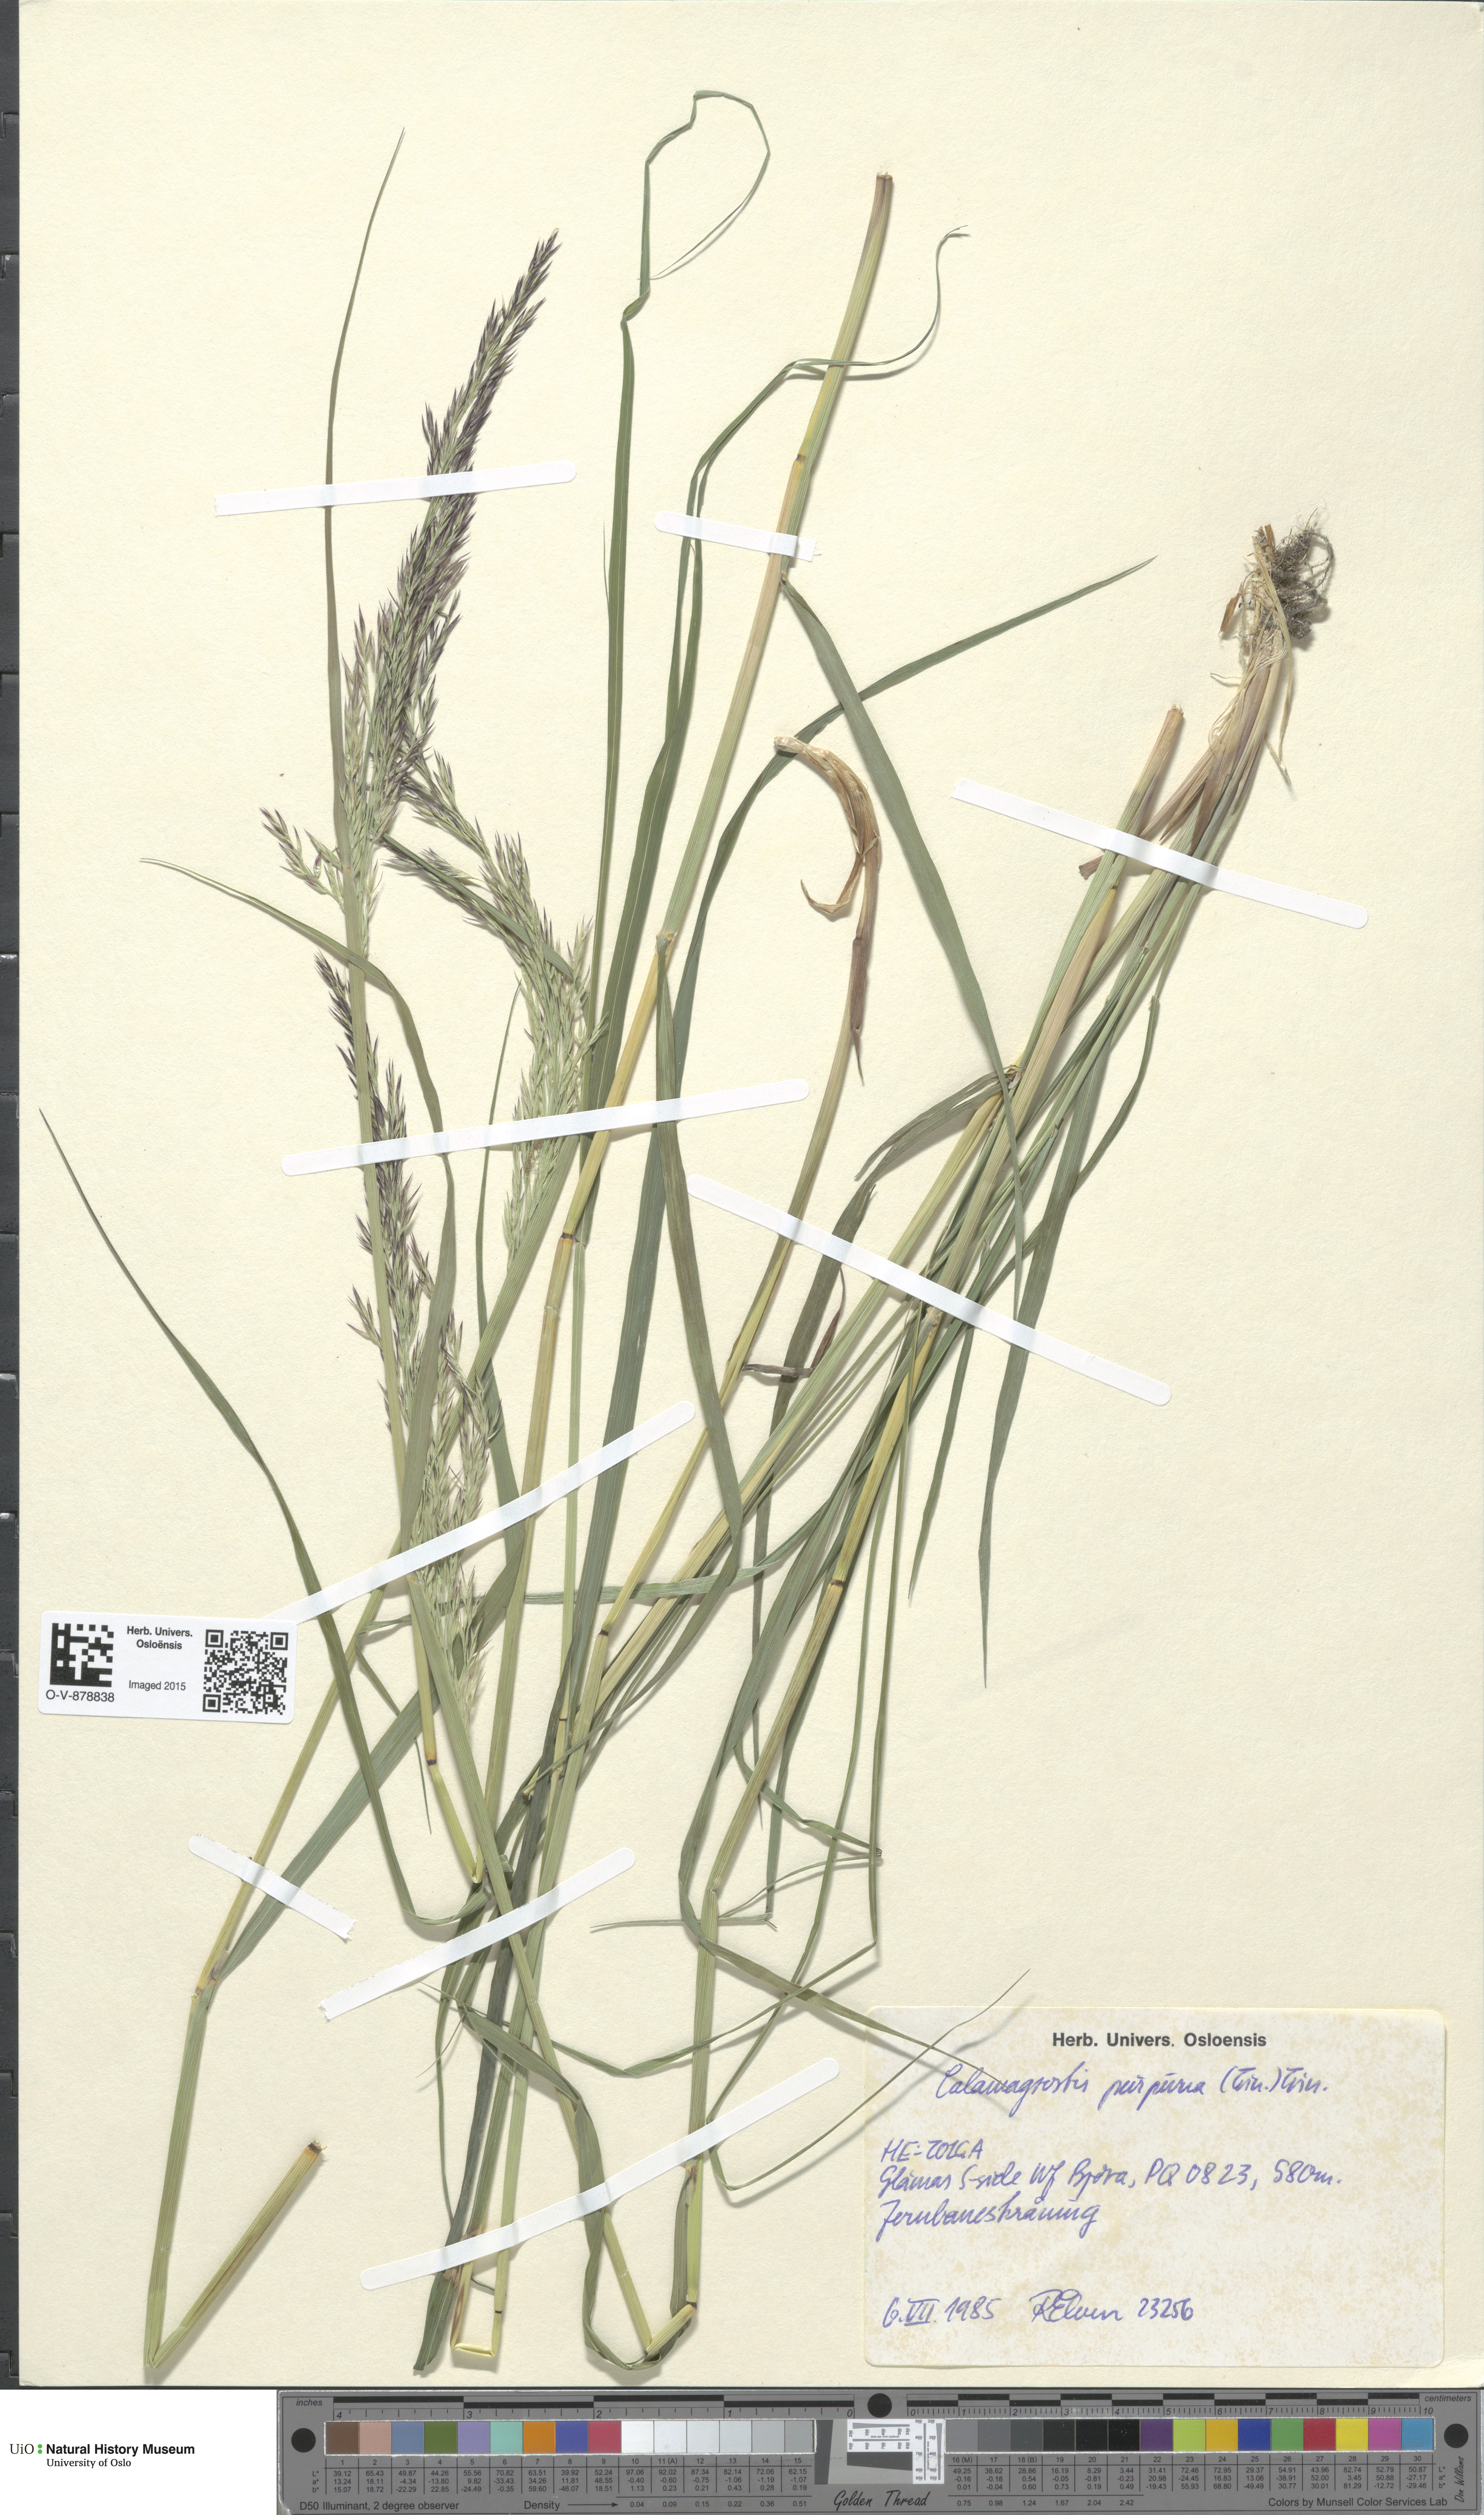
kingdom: Plantae
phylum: Tracheophyta
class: Liliopsida
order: Poales
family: Poaceae
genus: Calamagrostis
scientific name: Calamagrostis purpurea
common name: Scandinavian small-reed
